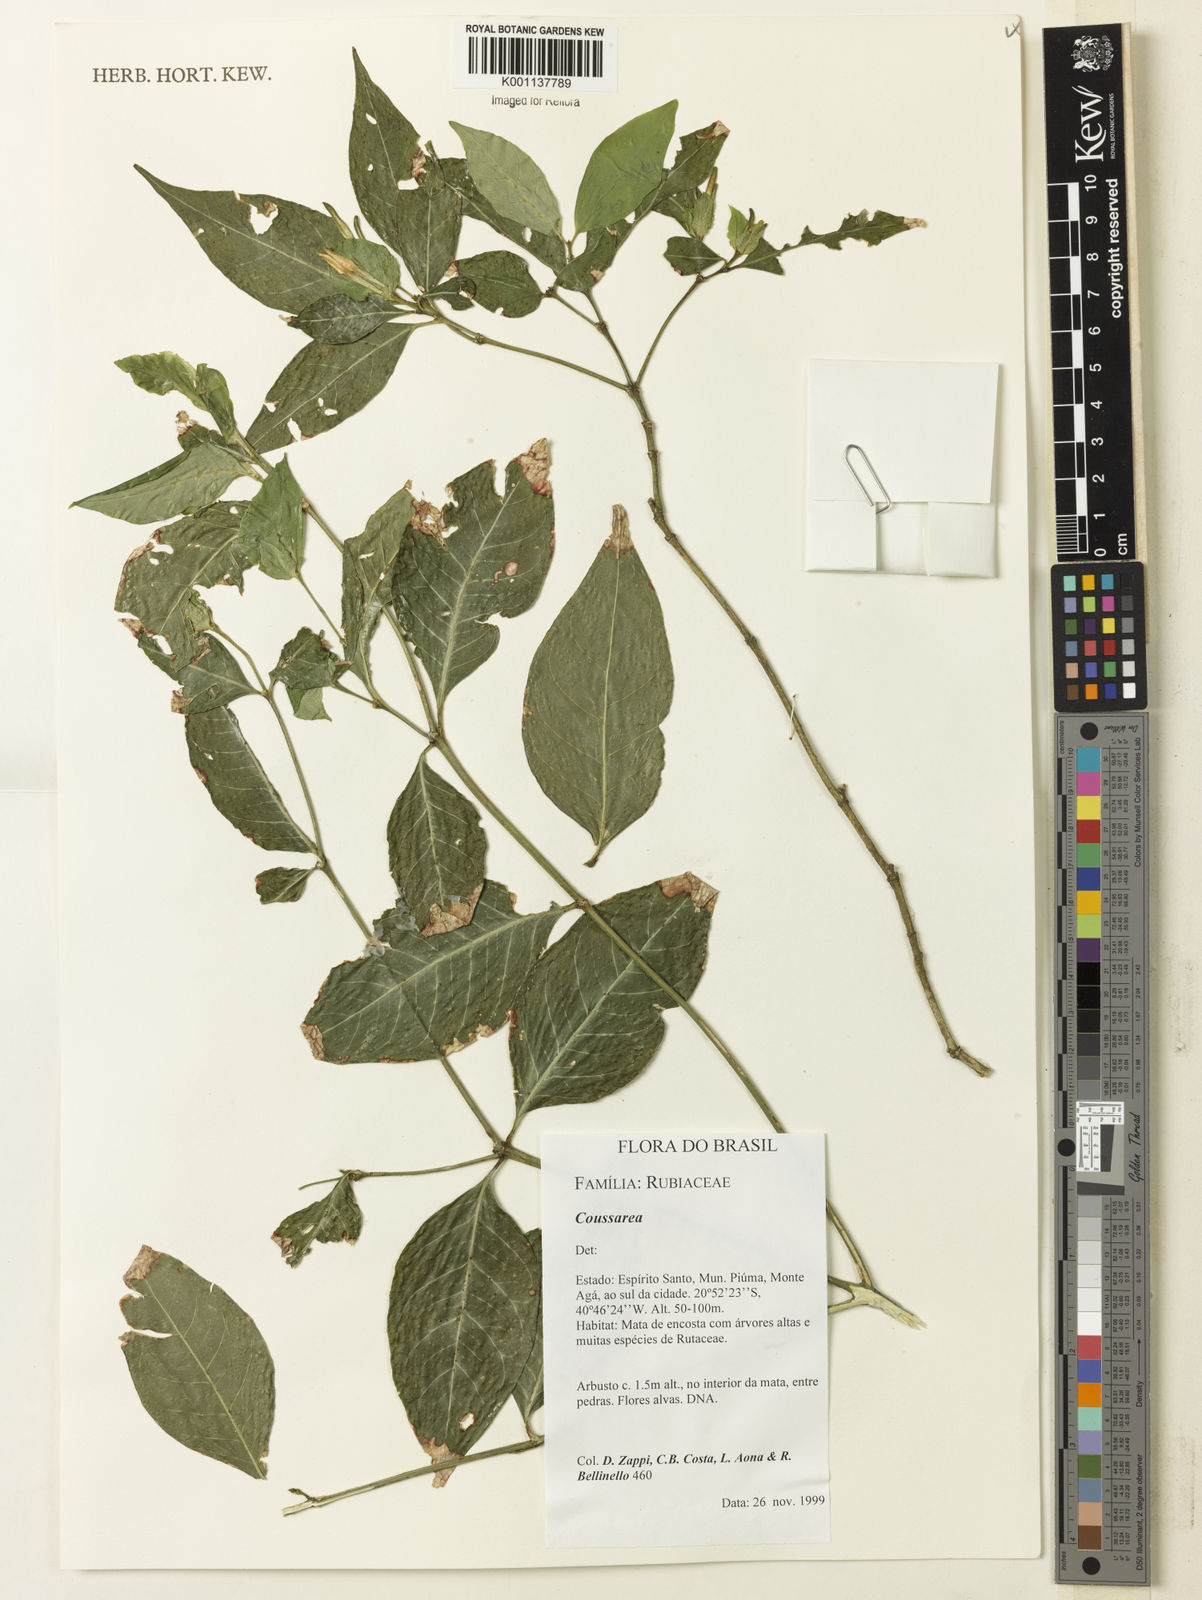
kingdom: Plantae
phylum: Tracheophyta
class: Magnoliopsida
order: Gentianales
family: Rubiaceae
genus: Coussarea
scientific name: Coussarea
